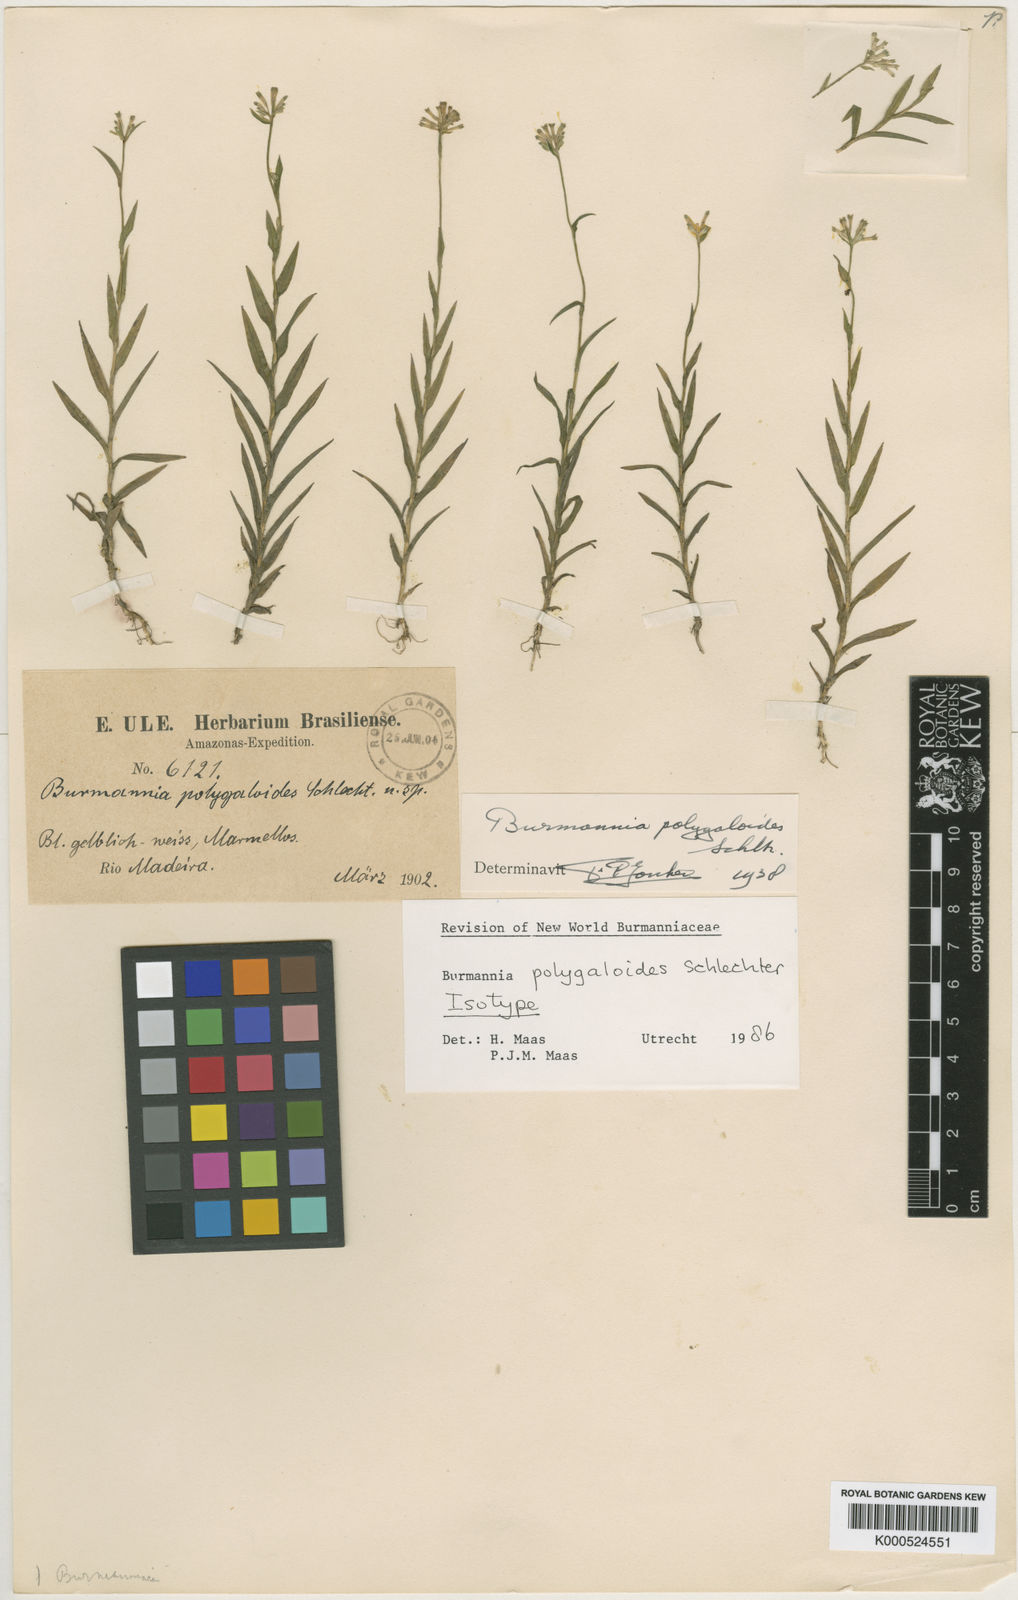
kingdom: Plantae
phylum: Tracheophyta
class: Liliopsida
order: Dioscoreales
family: Burmanniaceae
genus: Burmannia
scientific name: Burmannia polygaloides
